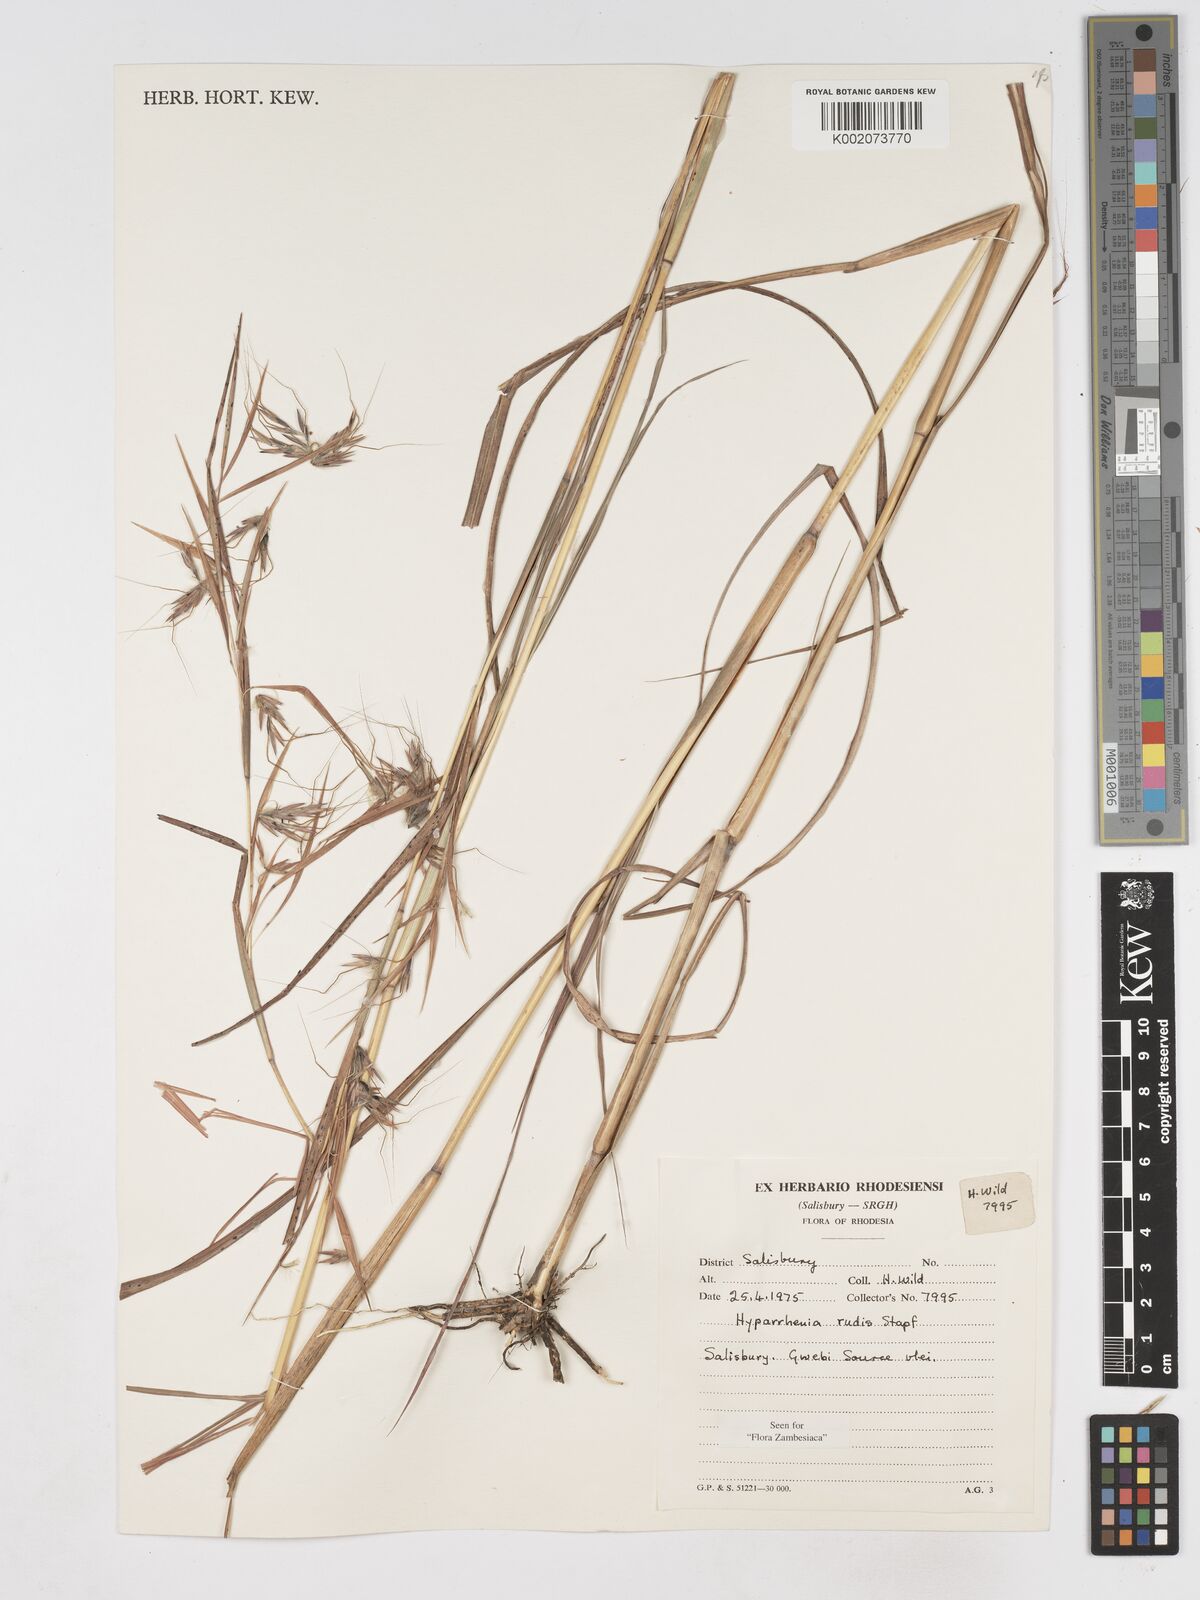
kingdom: Plantae
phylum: Tracheophyta
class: Liliopsida
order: Poales
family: Poaceae
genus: Hyparrhenia
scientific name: Hyparrhenia rudis
